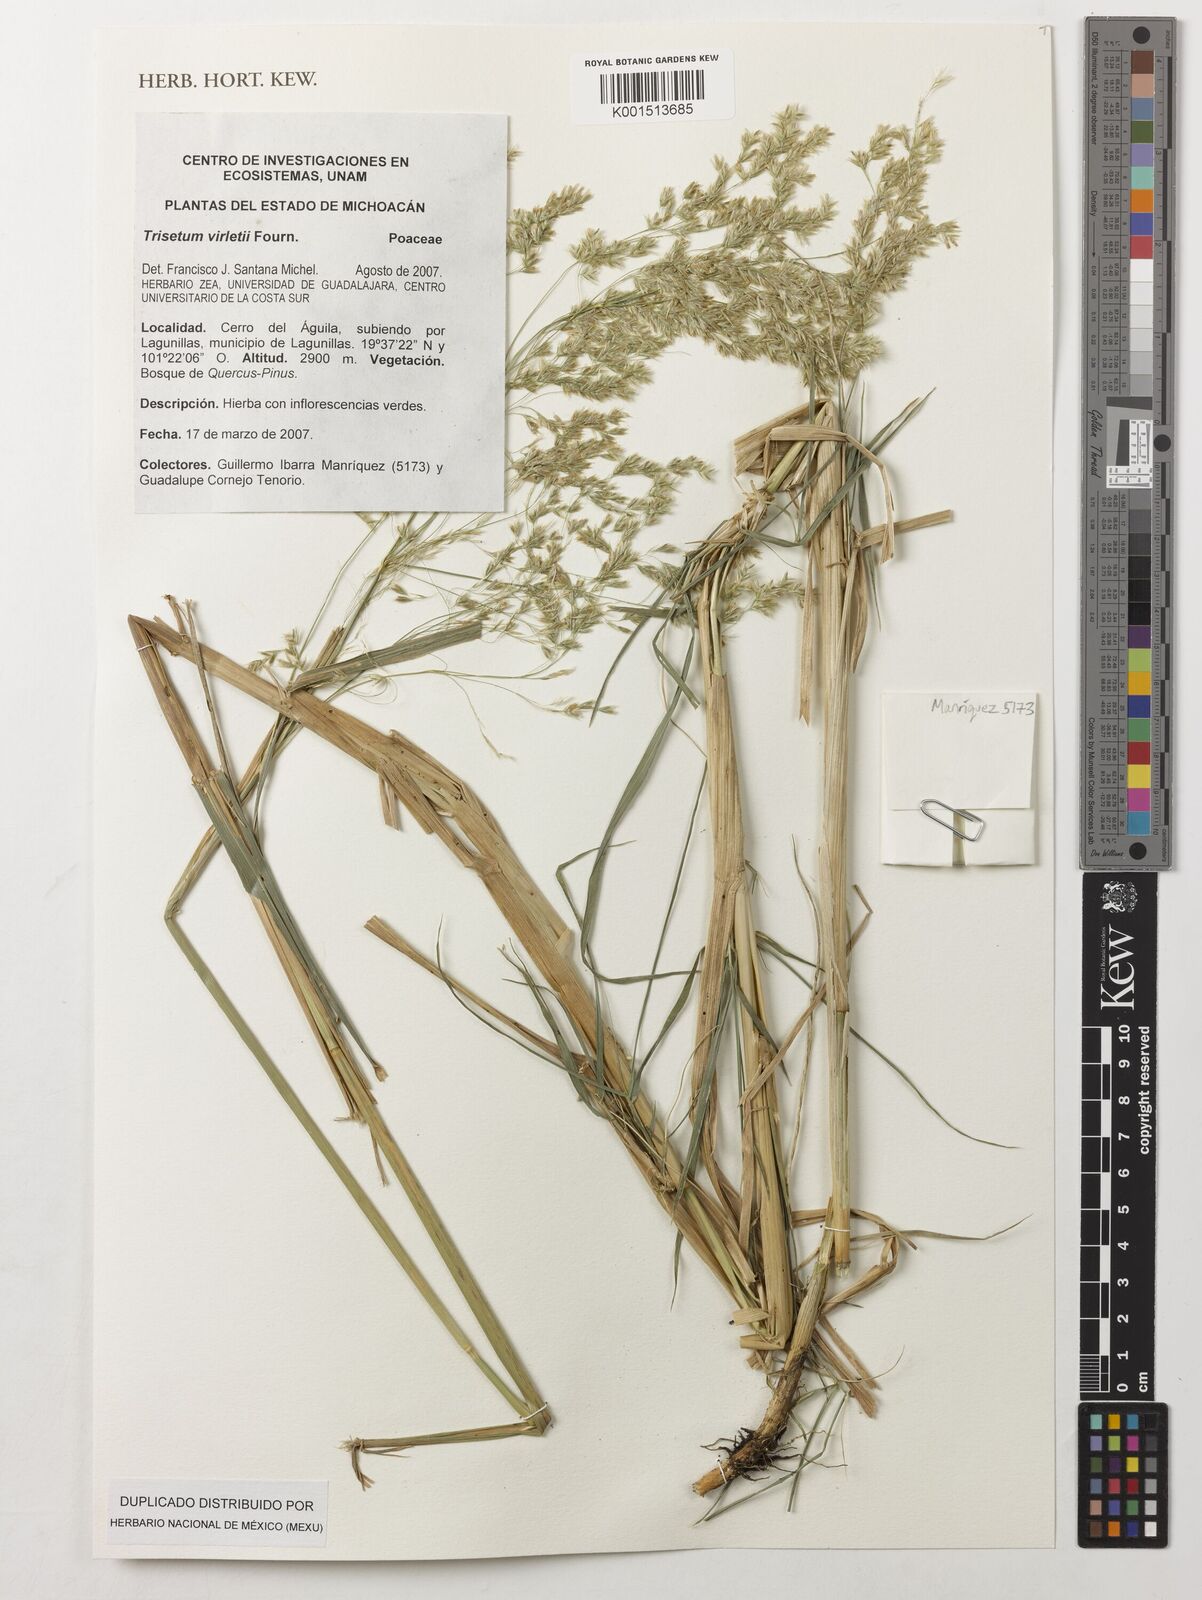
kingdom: Plantae
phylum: Tracheophyta
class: Liliopsida
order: Poales
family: Poaceae
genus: Peyritschia
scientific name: Peyritschia virletii
